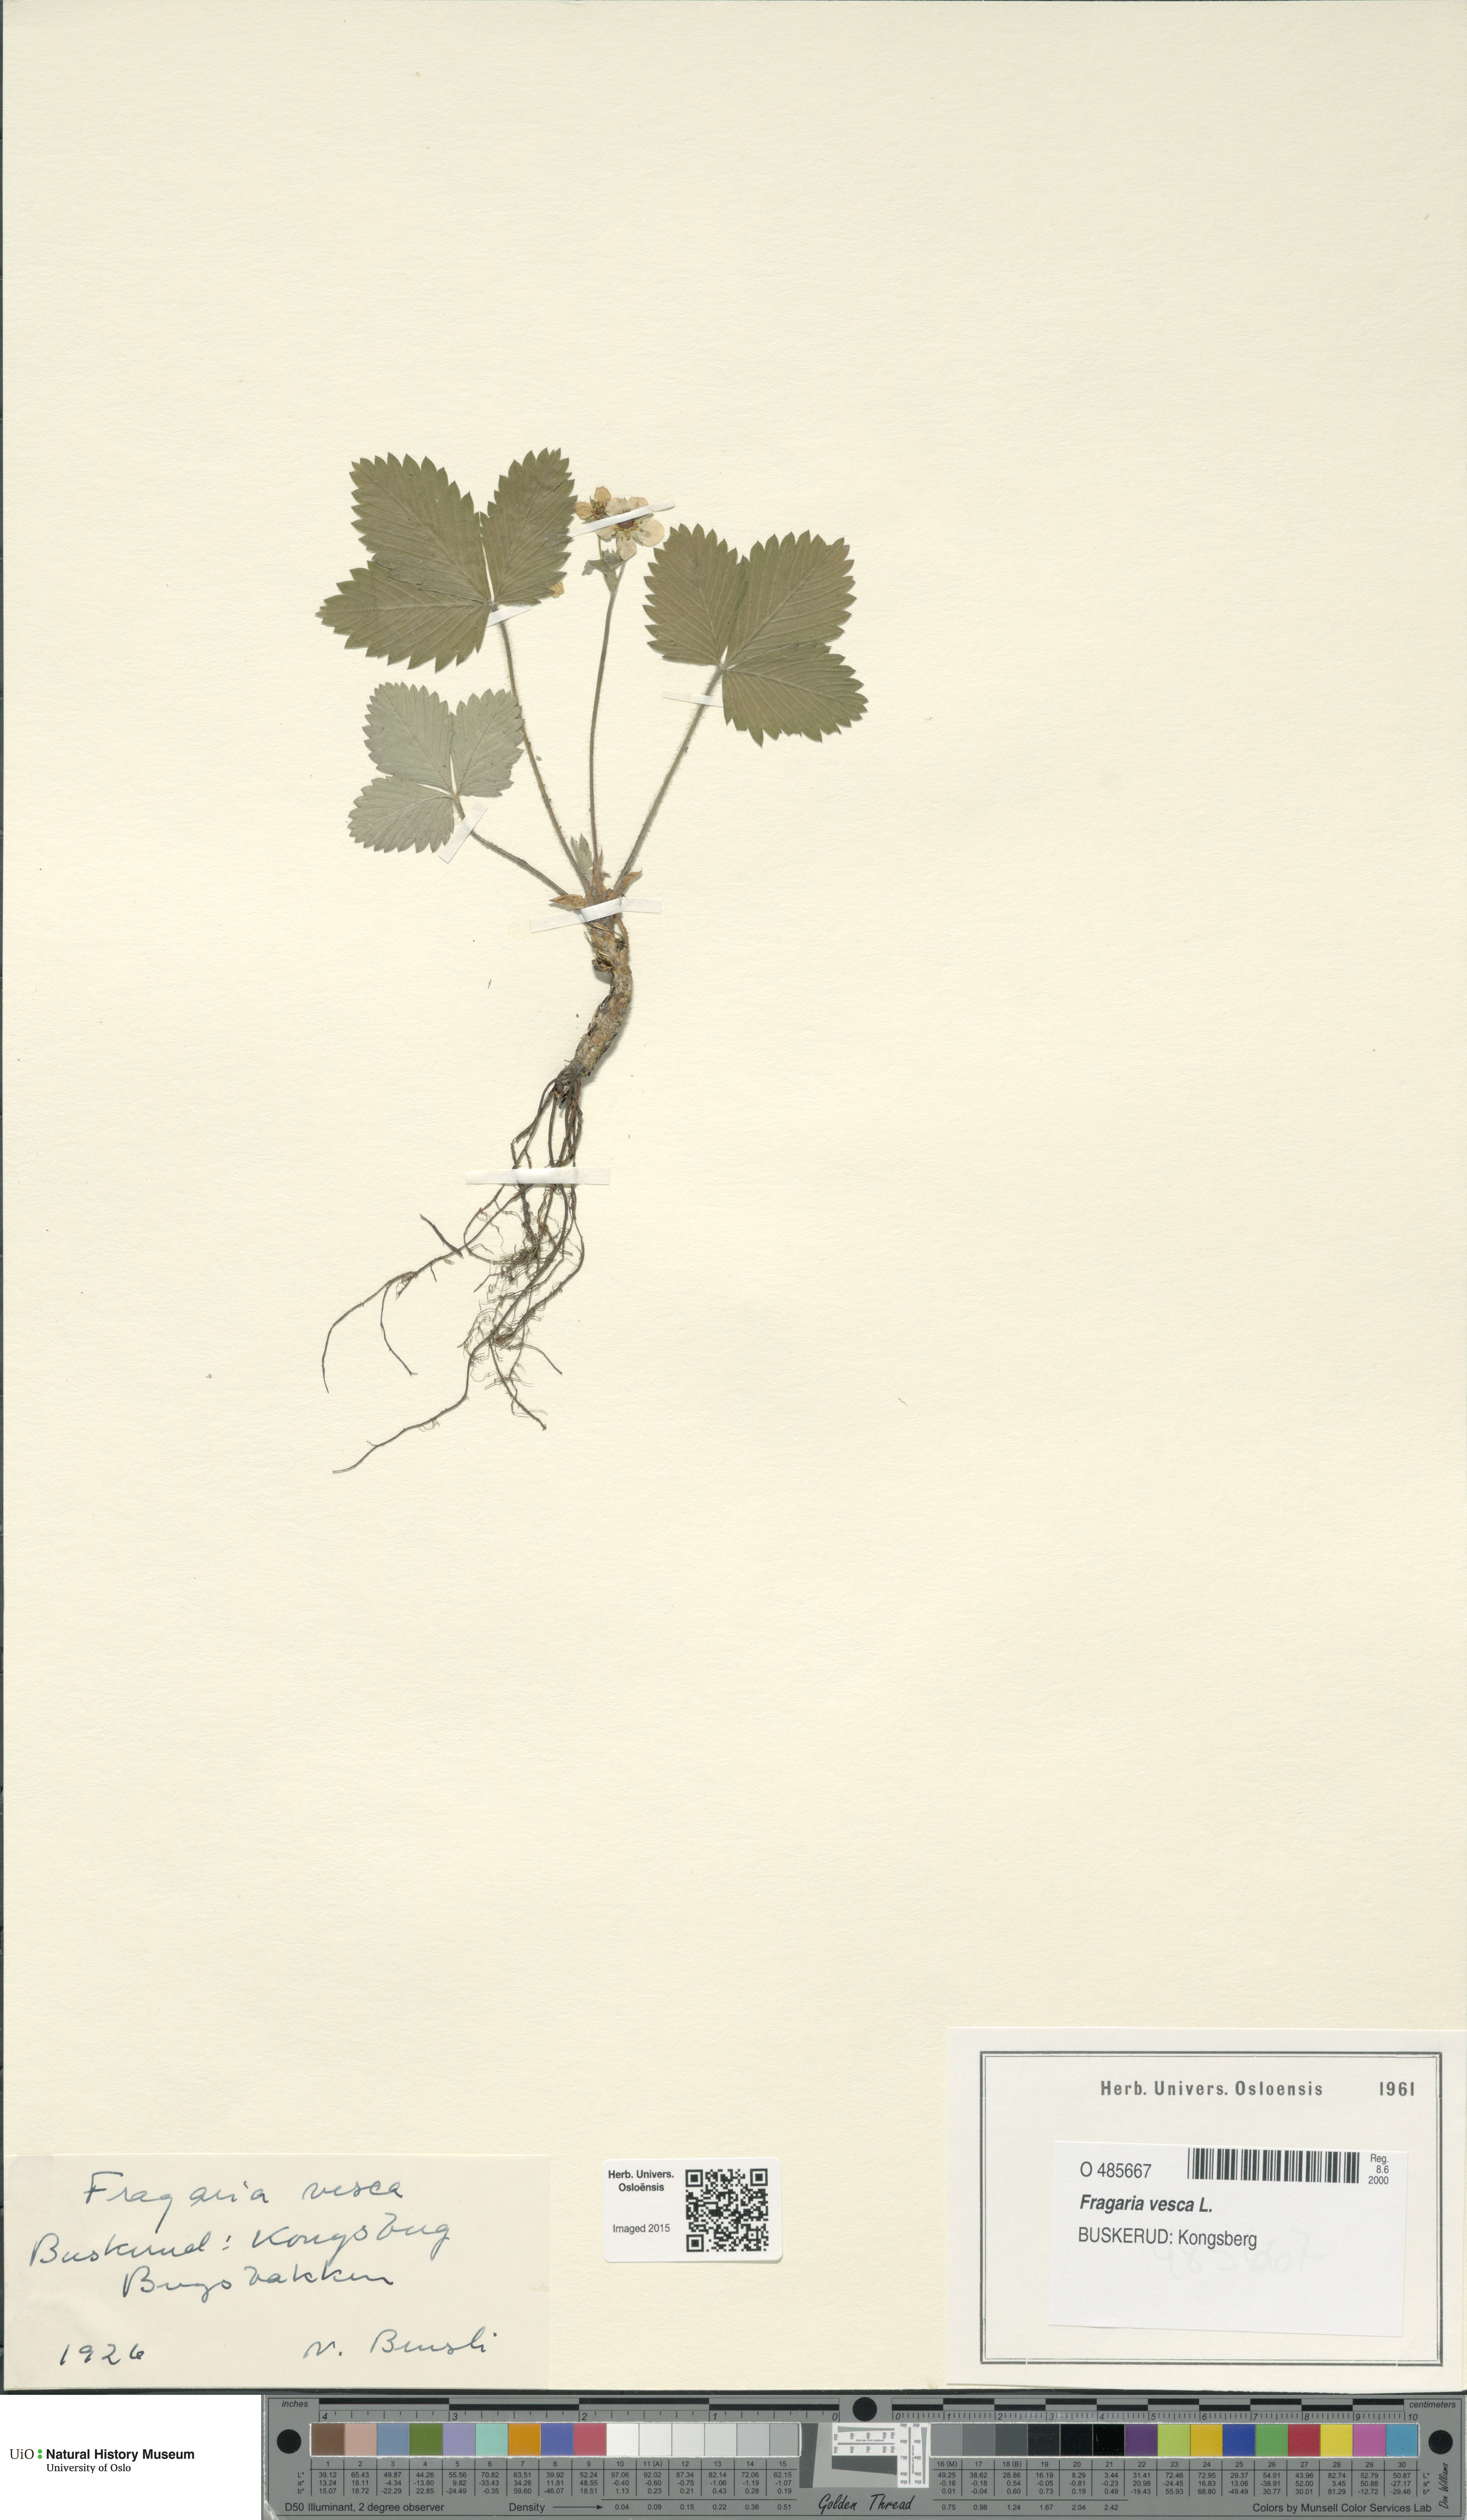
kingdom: Plantae
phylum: Tracheophyta
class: Magnoliopsida
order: Rosales
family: Rosaceae
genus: Fragaria
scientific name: Fragaria vesca
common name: Wild strawberry
